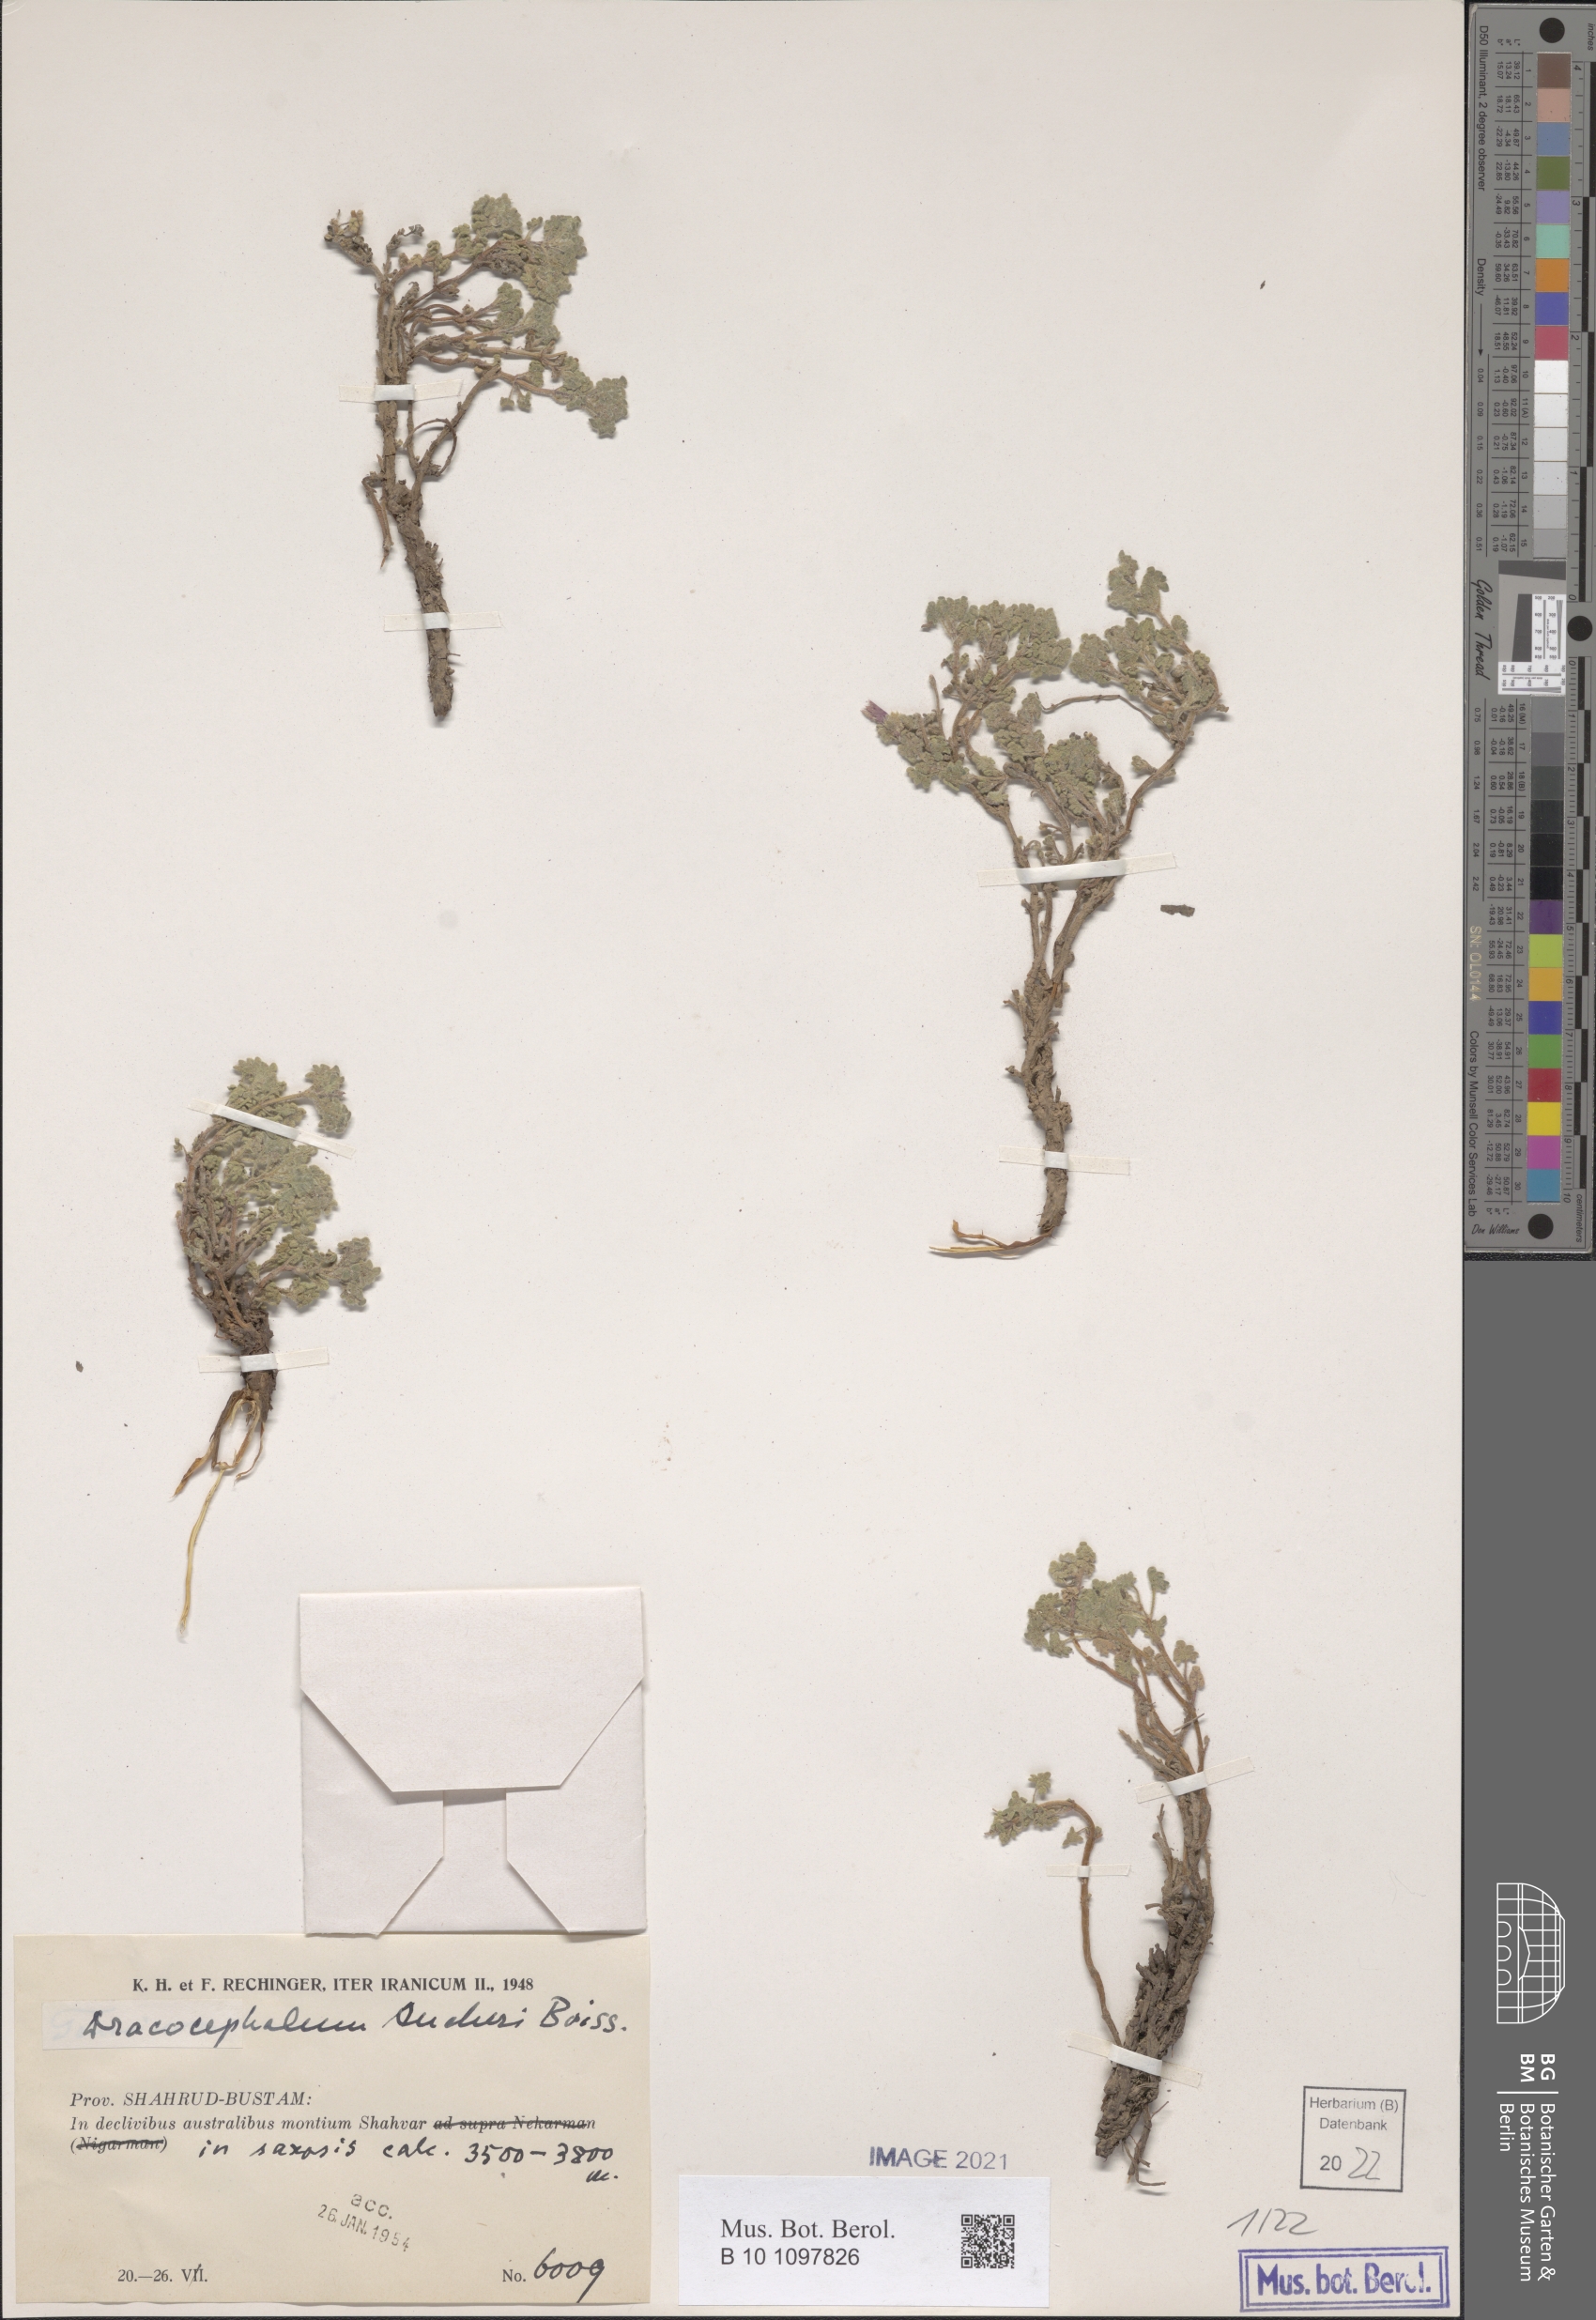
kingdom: Plantae
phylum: Tracheophyta
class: Magnoliopsida
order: Lamiales
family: Lamiaceae
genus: Dracocephalum
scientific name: Dracocephalum aucheri
